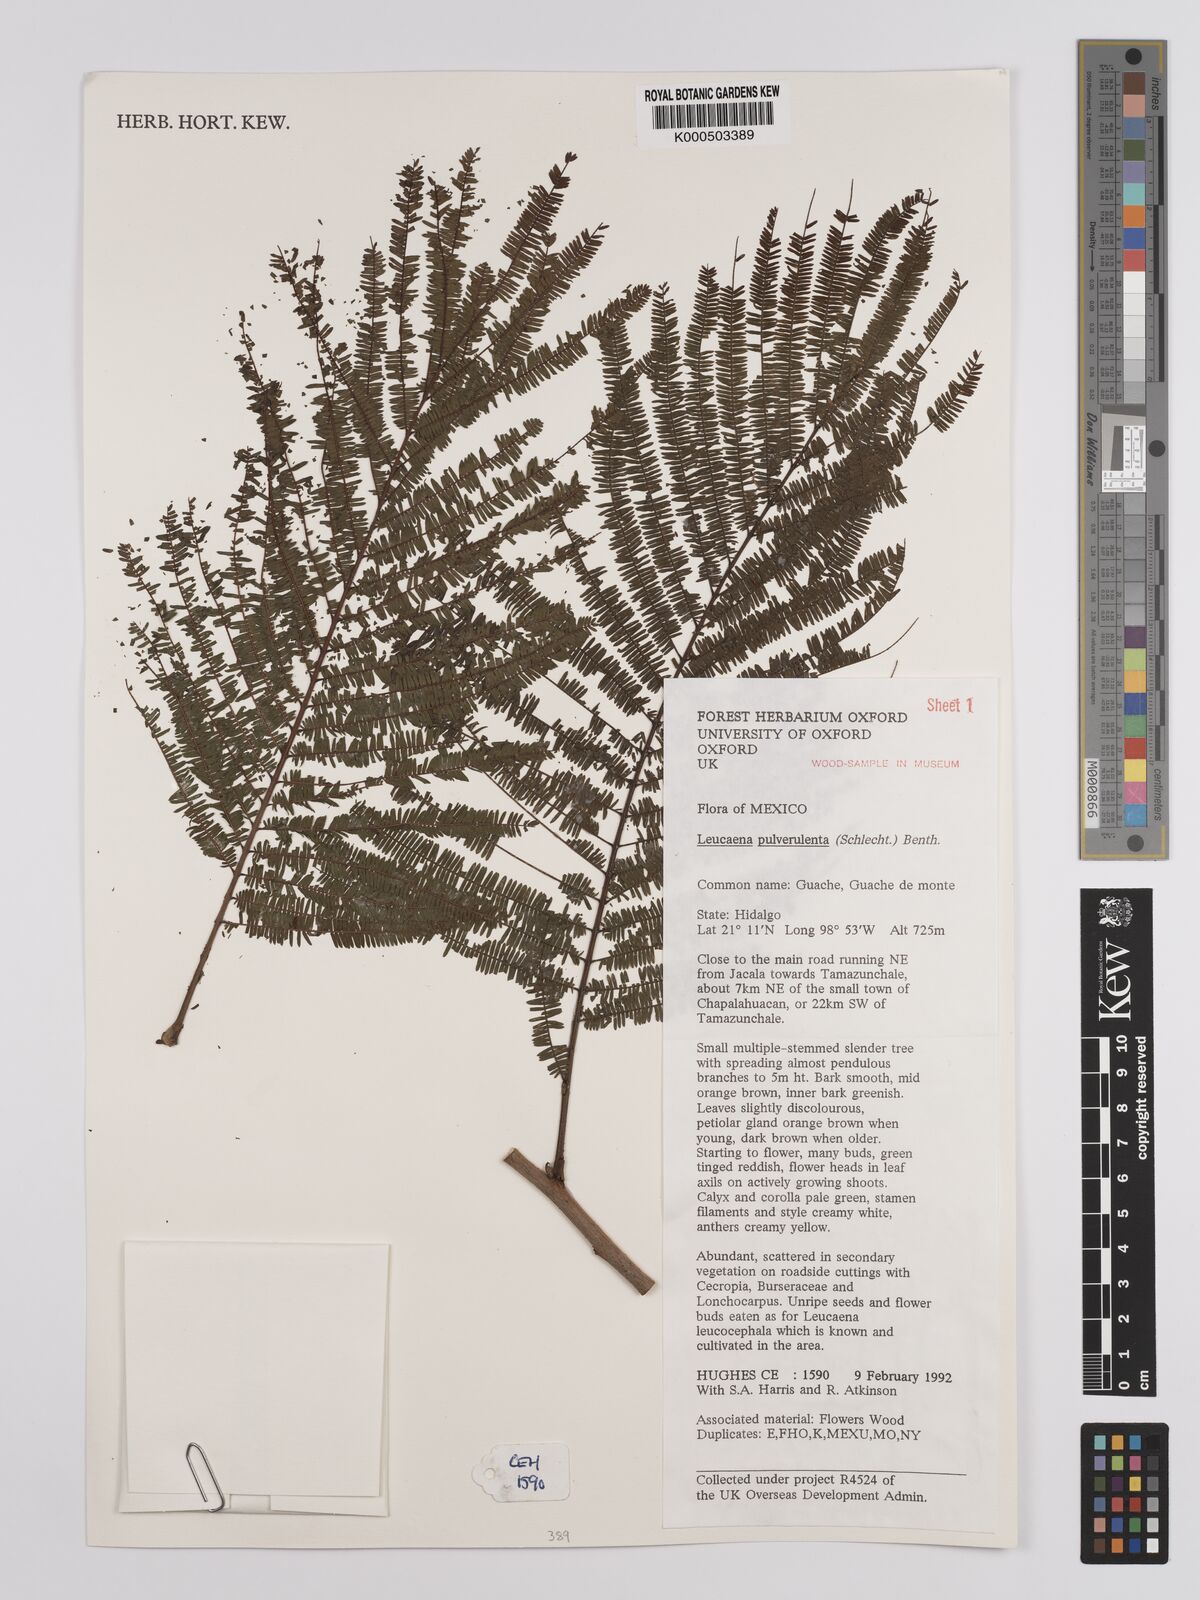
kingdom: Plantae
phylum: Tracheophyta
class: Magnoliopsida
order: Fabales
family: Fabaceae
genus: Leucaena
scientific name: Leucaena pulverulenta
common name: Great leadtree
